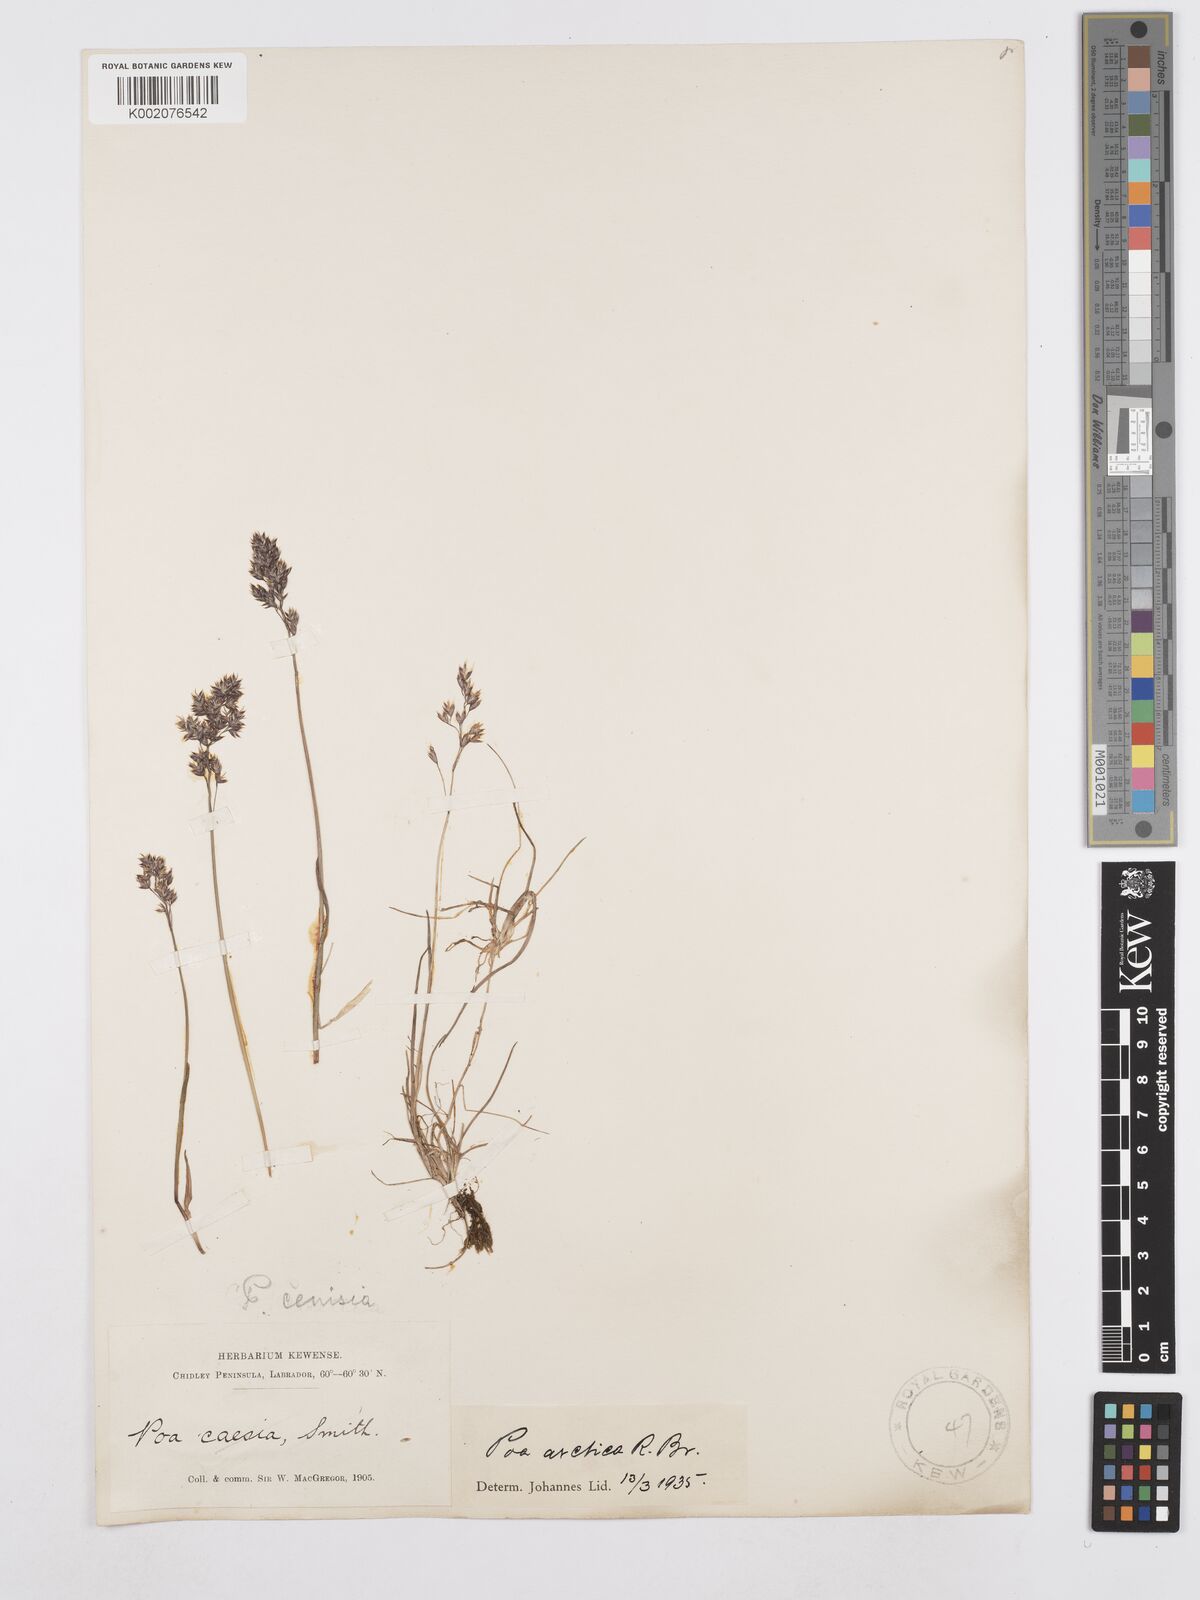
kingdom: Plantae
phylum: Tracheophyta
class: Liliopsida
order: Poales
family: Poaceae
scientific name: Poaceae
